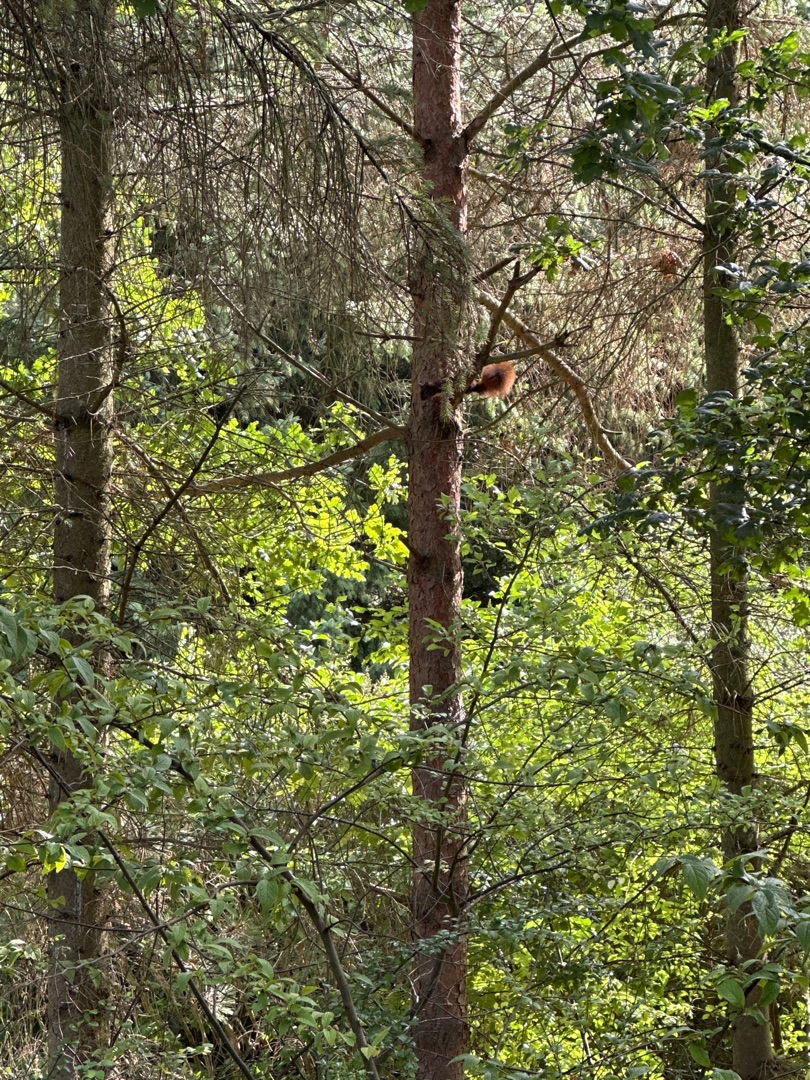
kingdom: Animalia
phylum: Chordata
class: Mammalia
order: Rodentia
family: Sciuridae
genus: Sciurus
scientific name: Sciurus vulgaris
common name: Egern
